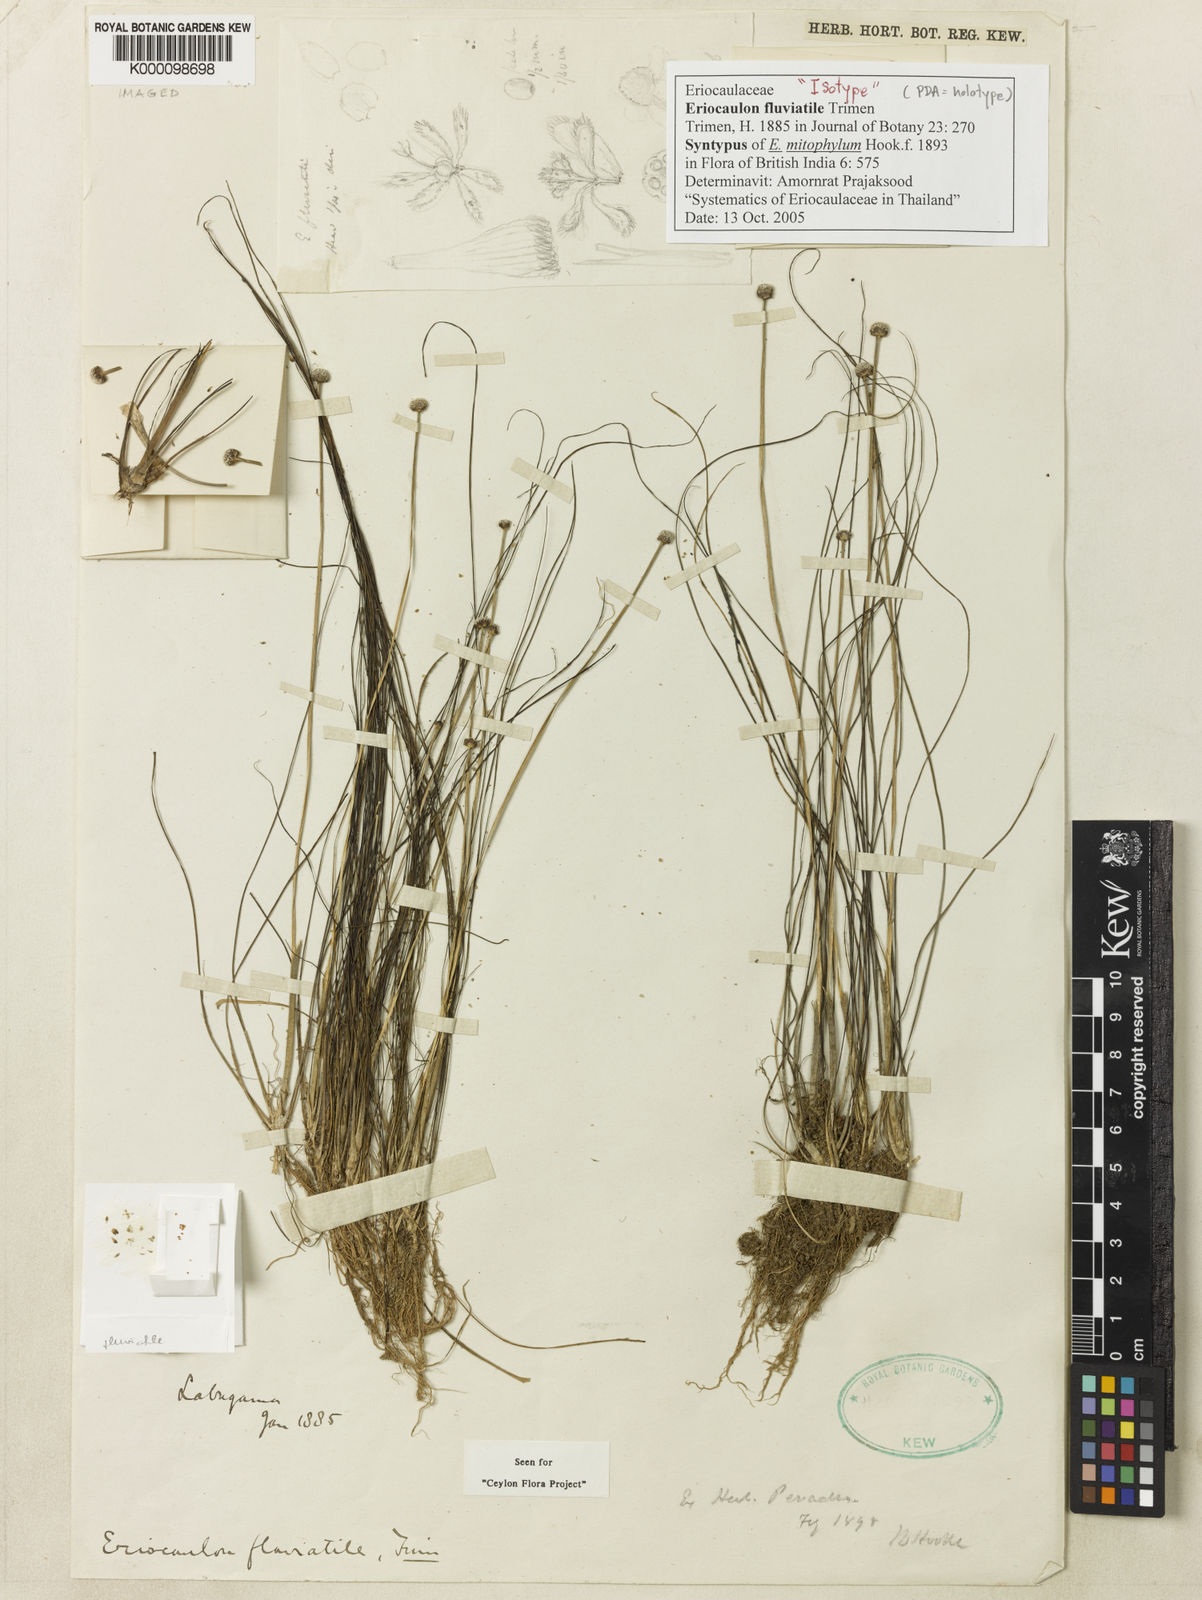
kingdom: Plantae
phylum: Tracheophyta
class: Liliopsida
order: Poales
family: Eriocaulaceae
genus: Eriocaulon
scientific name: Eriocaulon fluviatile
